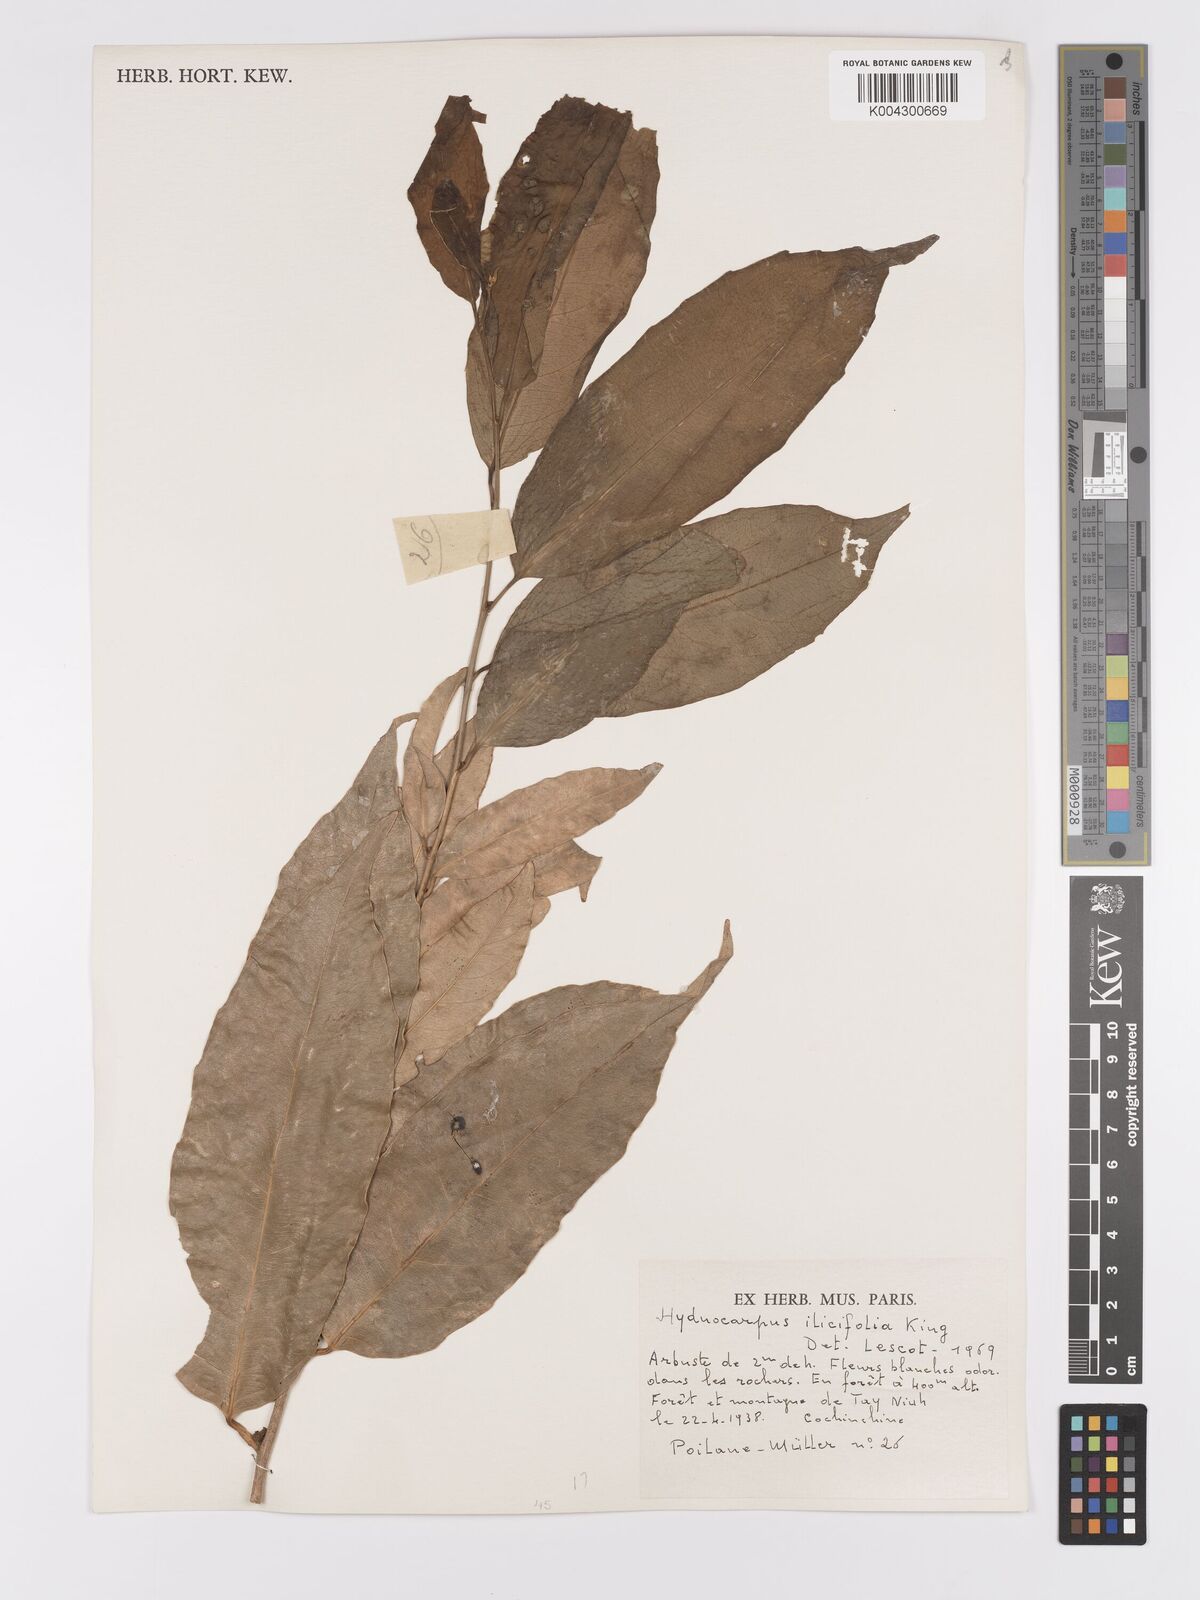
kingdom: Plantae
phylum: Tracheophyta
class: Magnoliopsida
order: Malpighiales
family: Achariaceae
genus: Hydnocarpus
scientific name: Hydnocarpus ilicifolius
